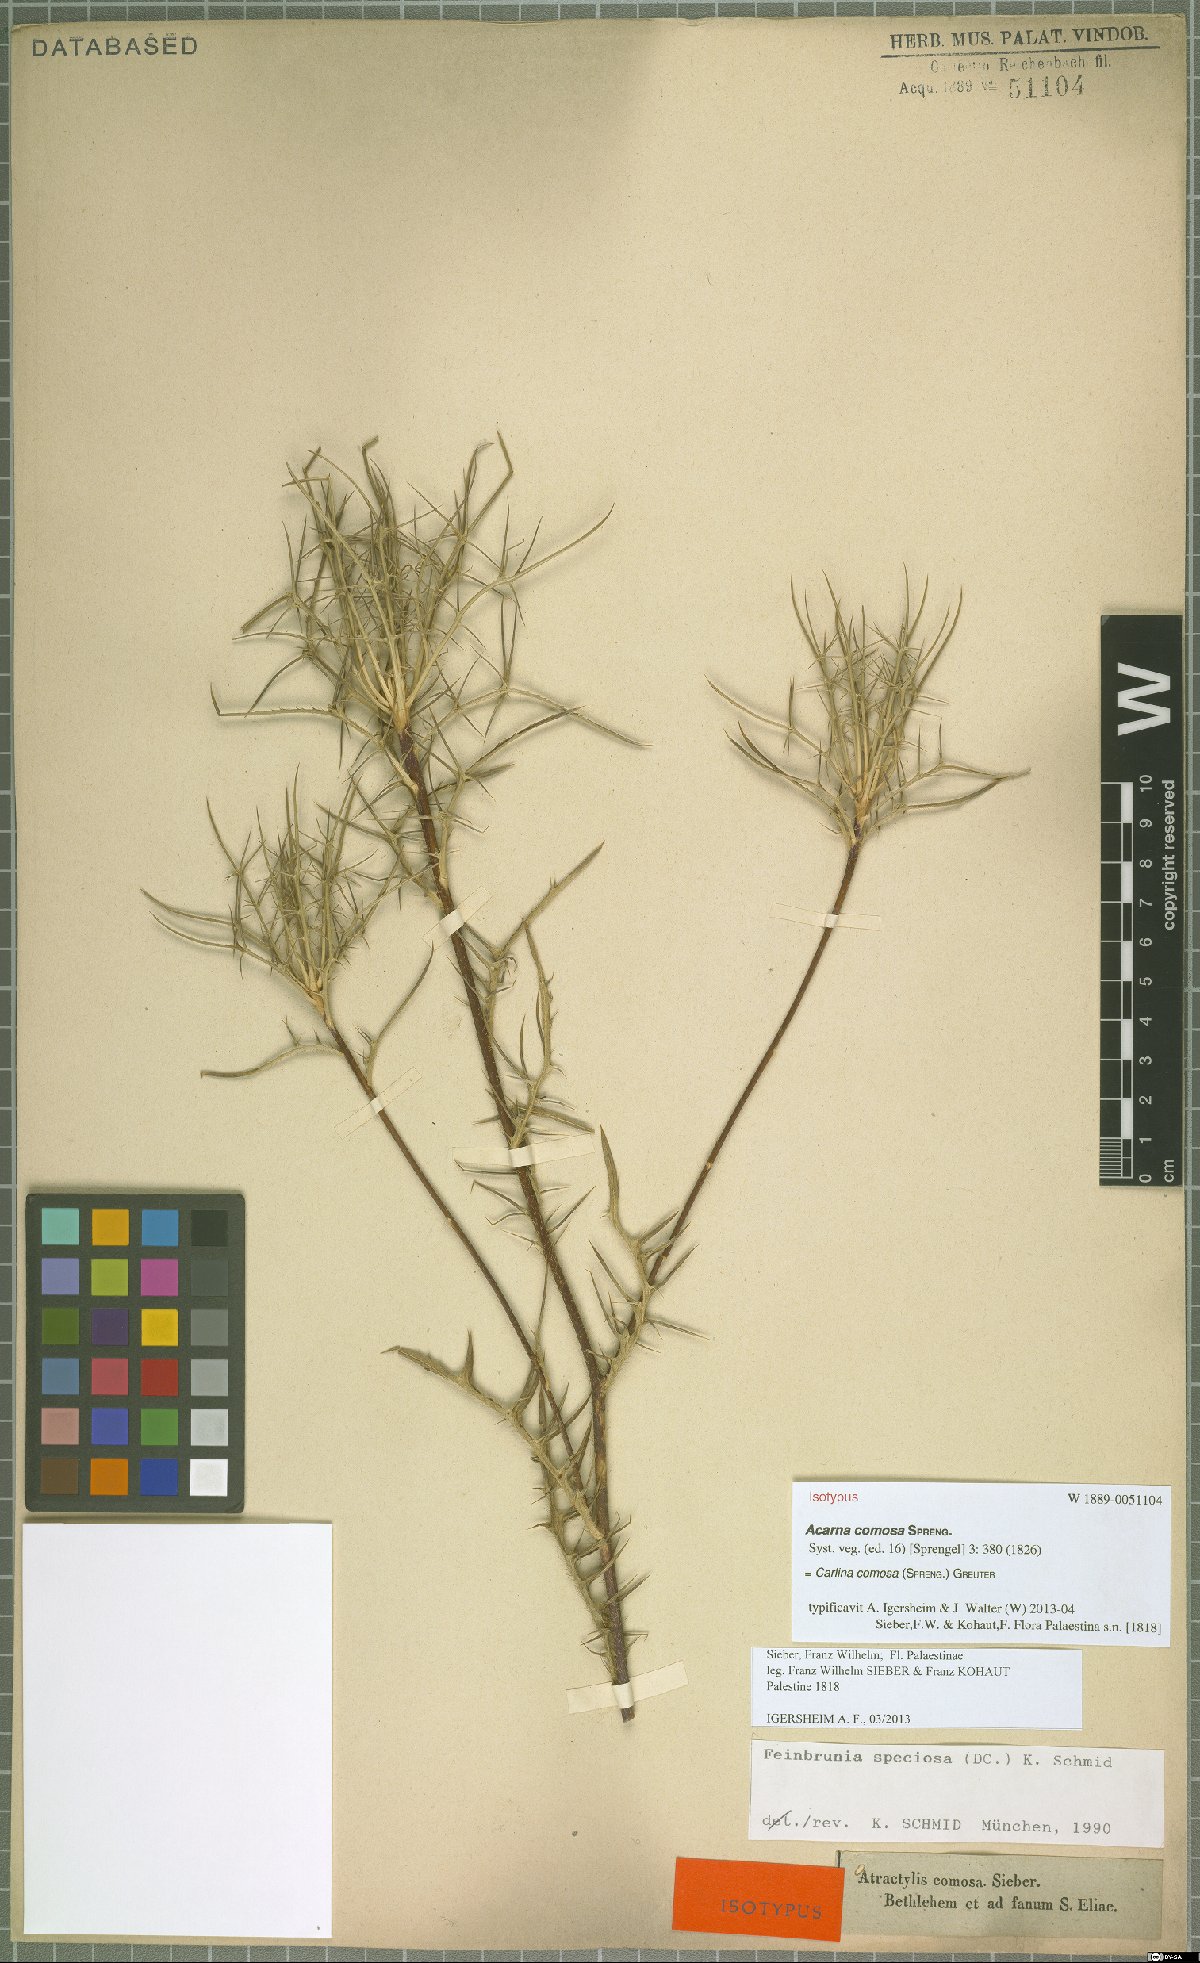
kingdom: Plantae
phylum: Tracheophyta
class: Magnoliopsida
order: Asterales
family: Asteraceae
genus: Chamaeleon
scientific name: Chamaeleon comosus
